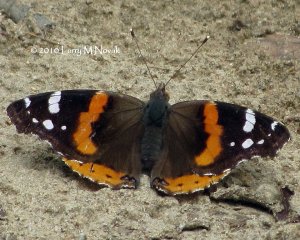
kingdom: Animalia
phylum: Arthropoda
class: Insecta
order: Lepidoptera
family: Nymphalidae
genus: Vanessa
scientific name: Vanessa atalanta
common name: Red Admiral
